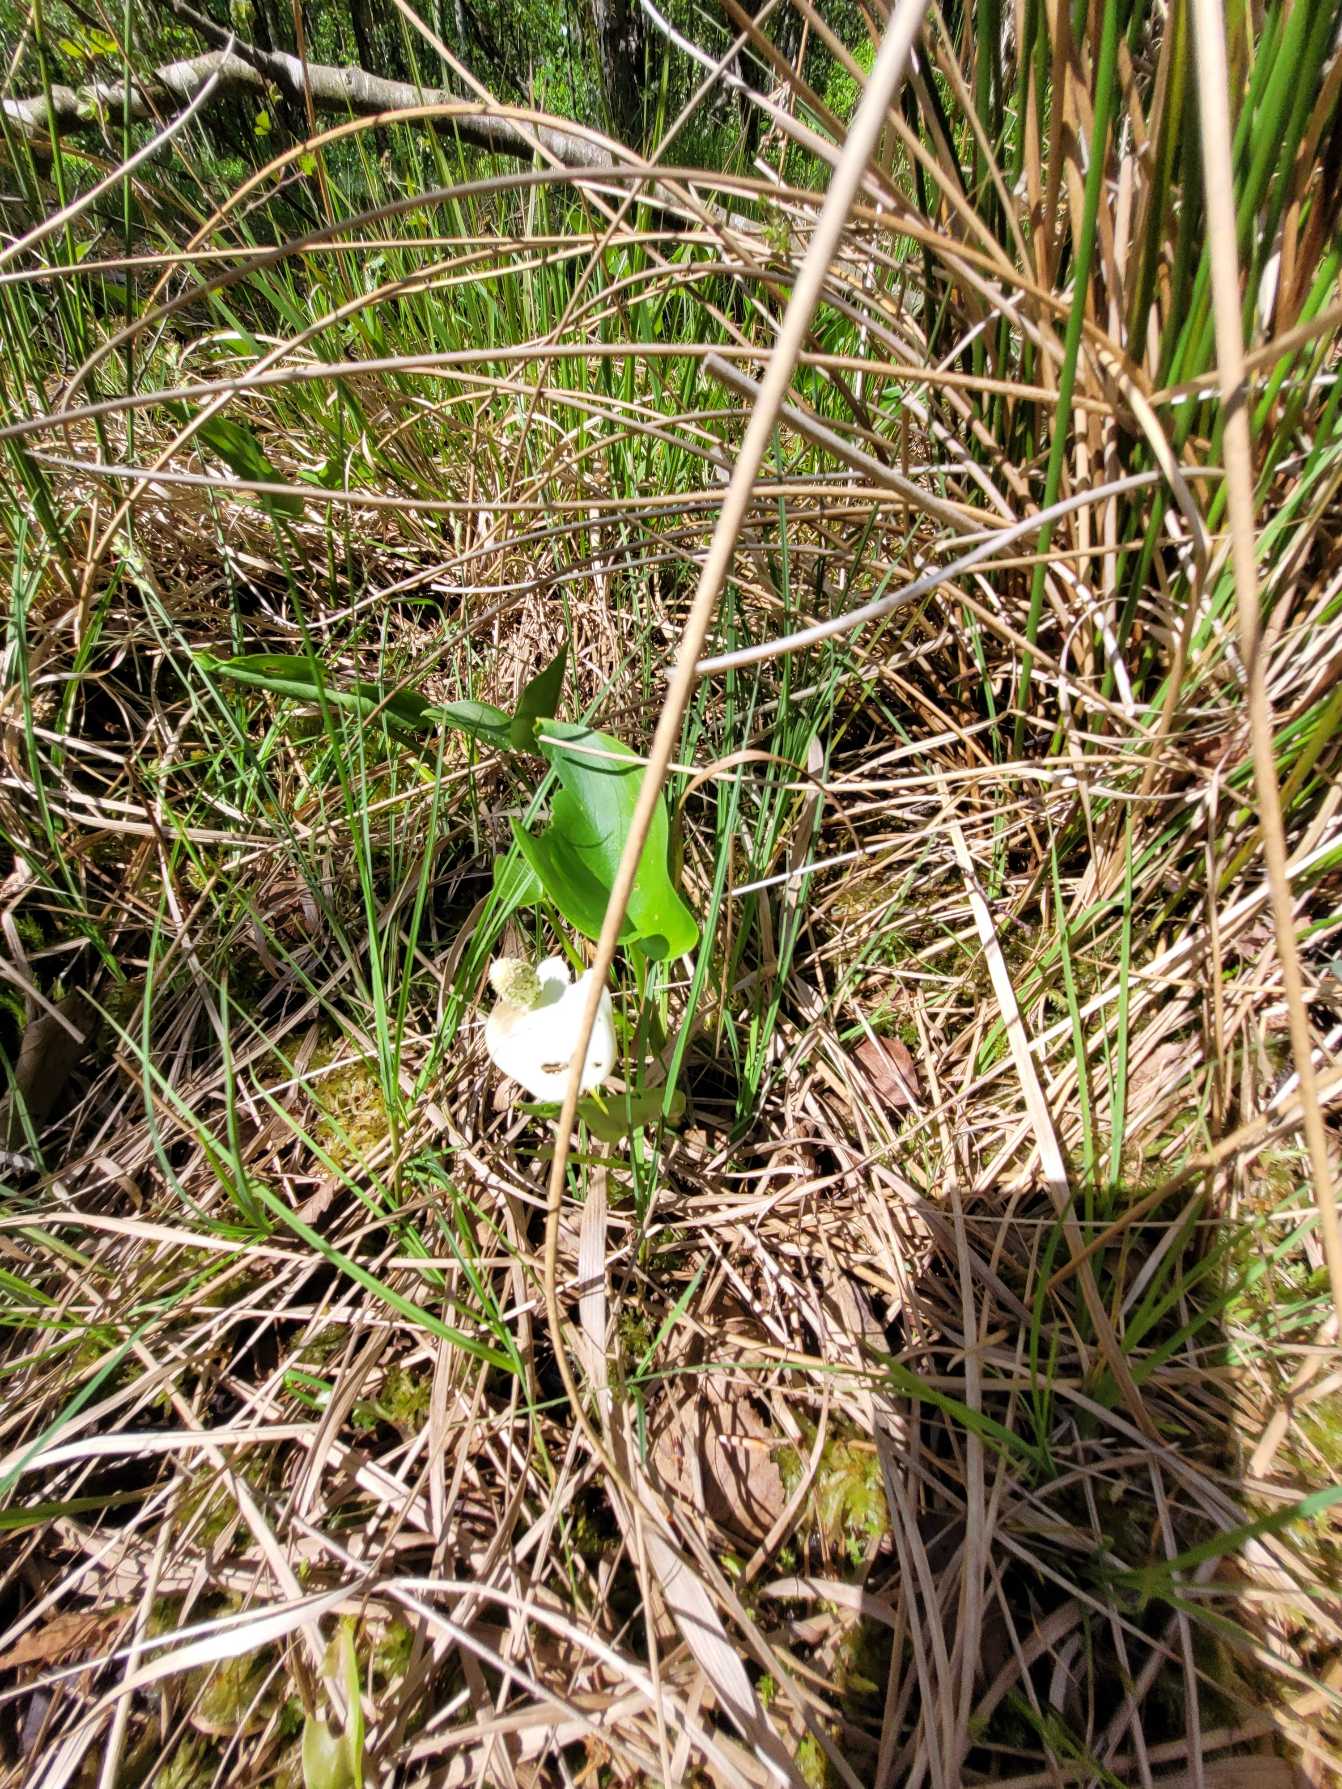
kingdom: Plantae
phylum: Tracheophyta
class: Liliopsida
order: Alismatales
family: Araceae
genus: Calla
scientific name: Calla palustris
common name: Kærmysse
